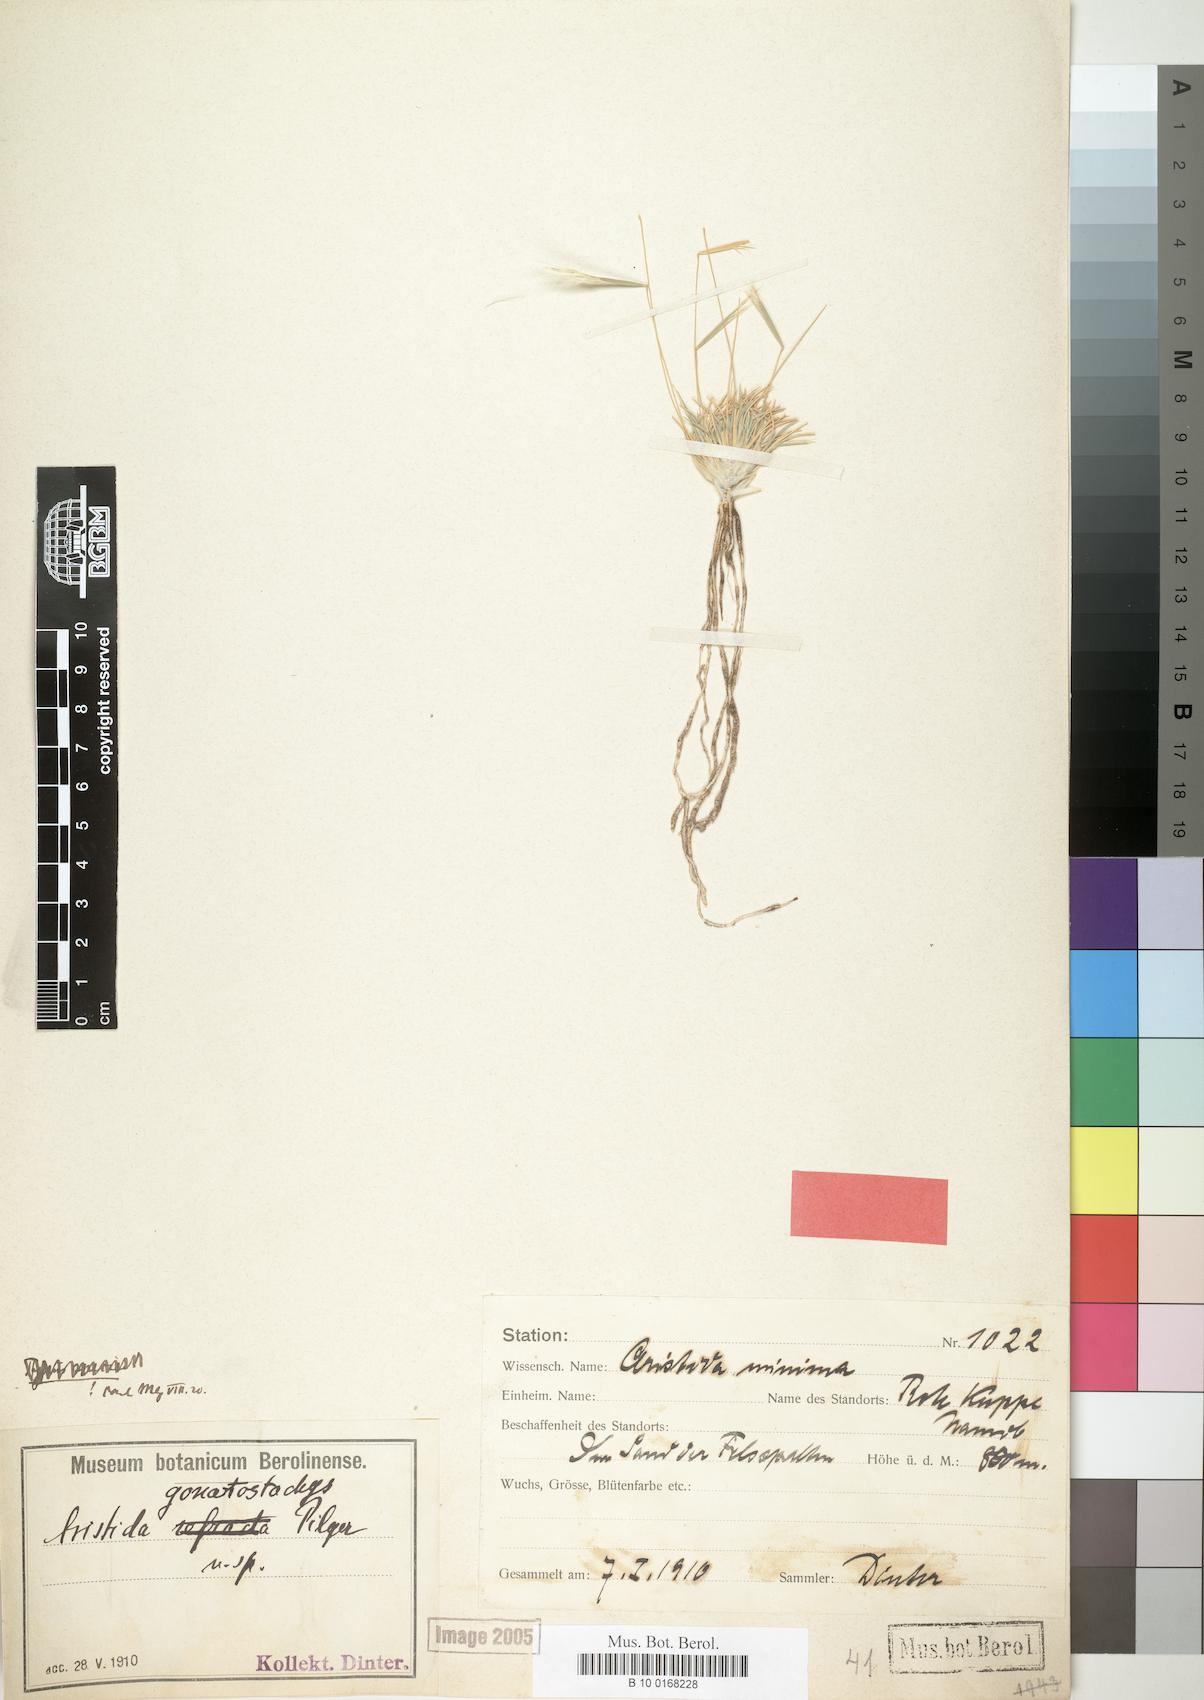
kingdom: Plantae
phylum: Tracheophyta
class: Liliopsida
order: Poales
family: Poaceae
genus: Stipagrostis
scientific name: Stipagrostis gonatostachys
